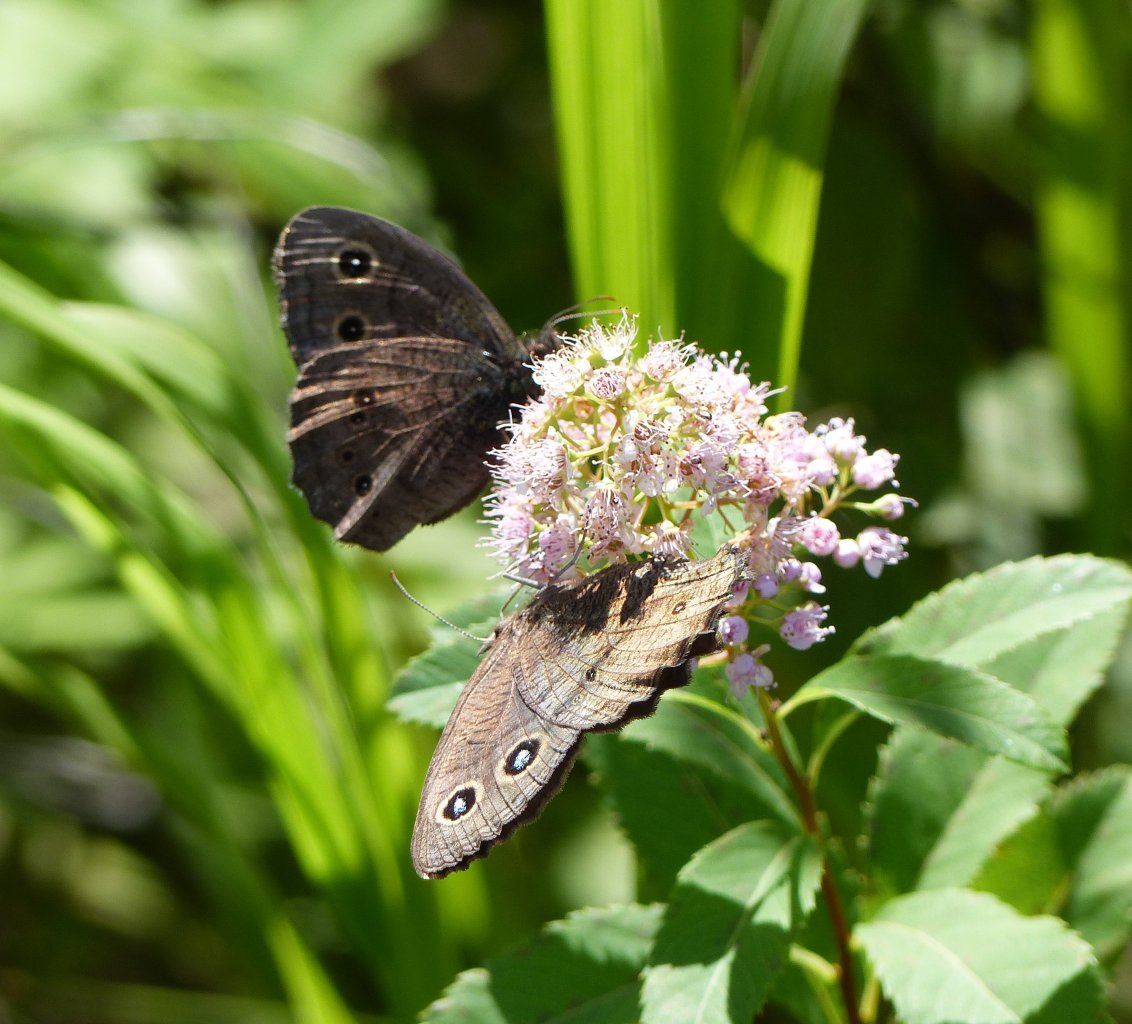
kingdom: Animalia
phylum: Arthropoda
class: Insecta
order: Lepidoptera
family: Nymphalidae
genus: Cercyonis
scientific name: Cercyonis pegala
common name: Common Wood-Nymph
